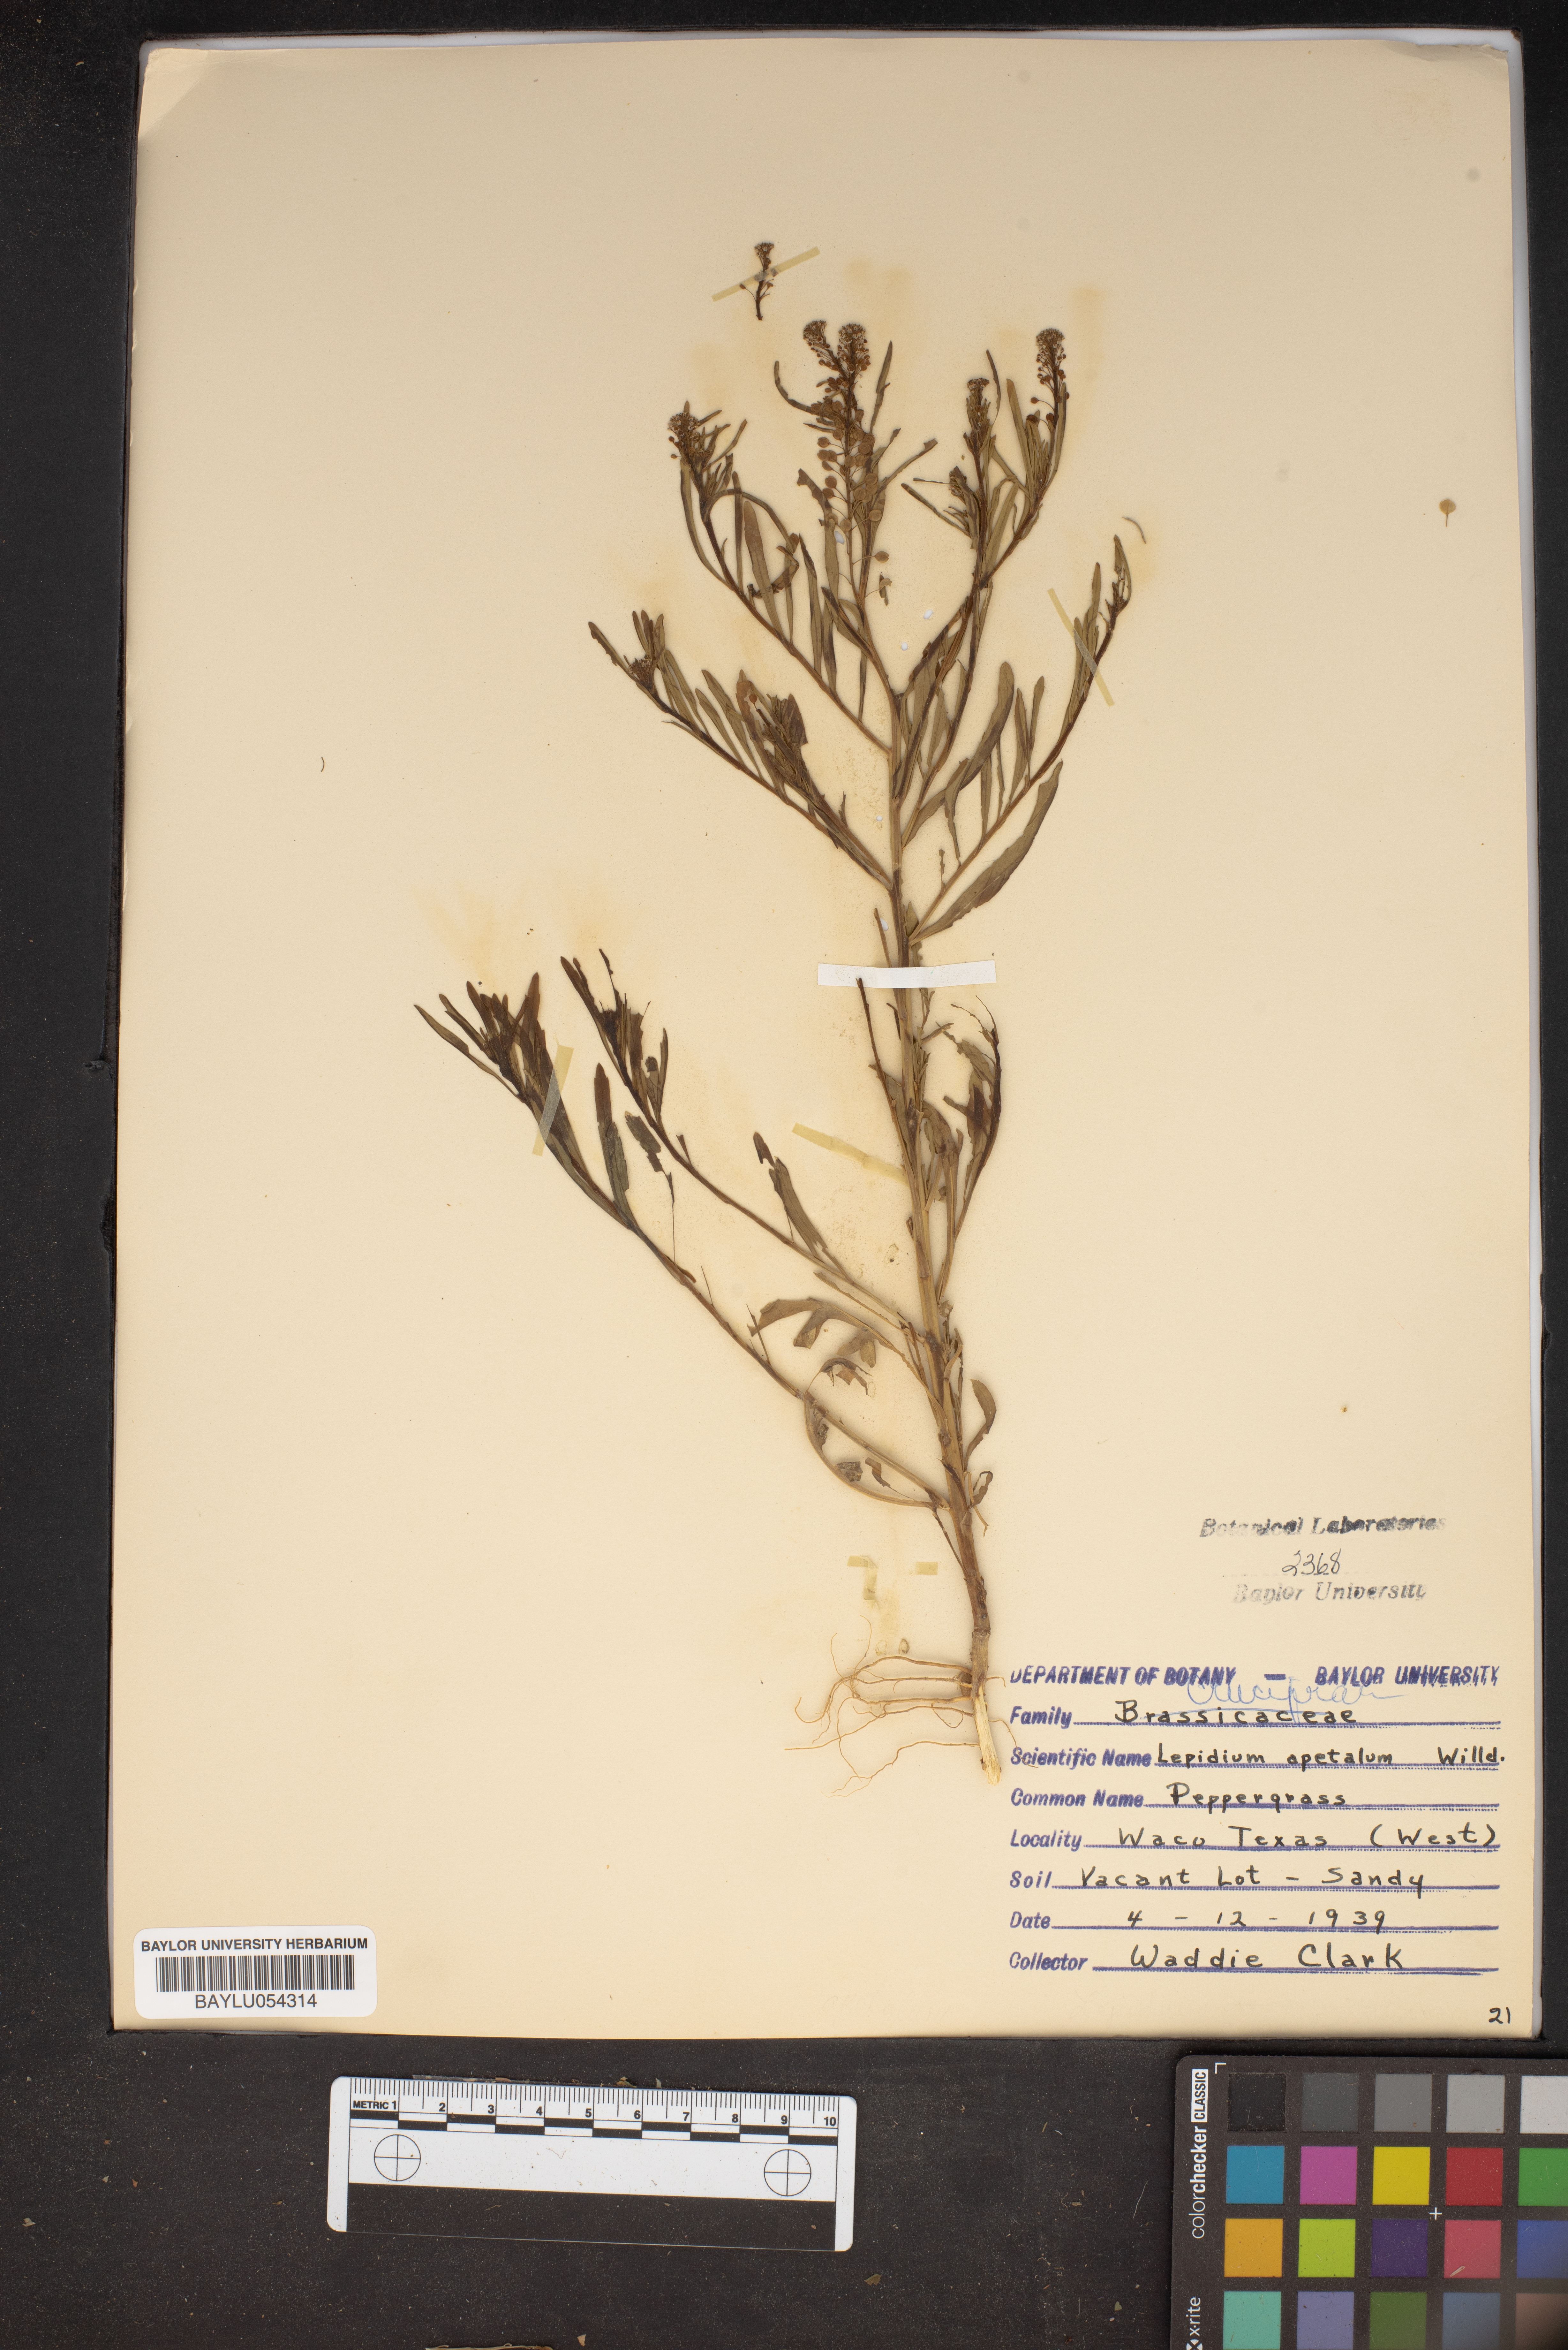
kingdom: Plantae
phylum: Tracheophyta
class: Magnoliopsida
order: Brassicales
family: Brassicaceae
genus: Lepidium
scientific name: Lepidium apetalum
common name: Pepperweed
